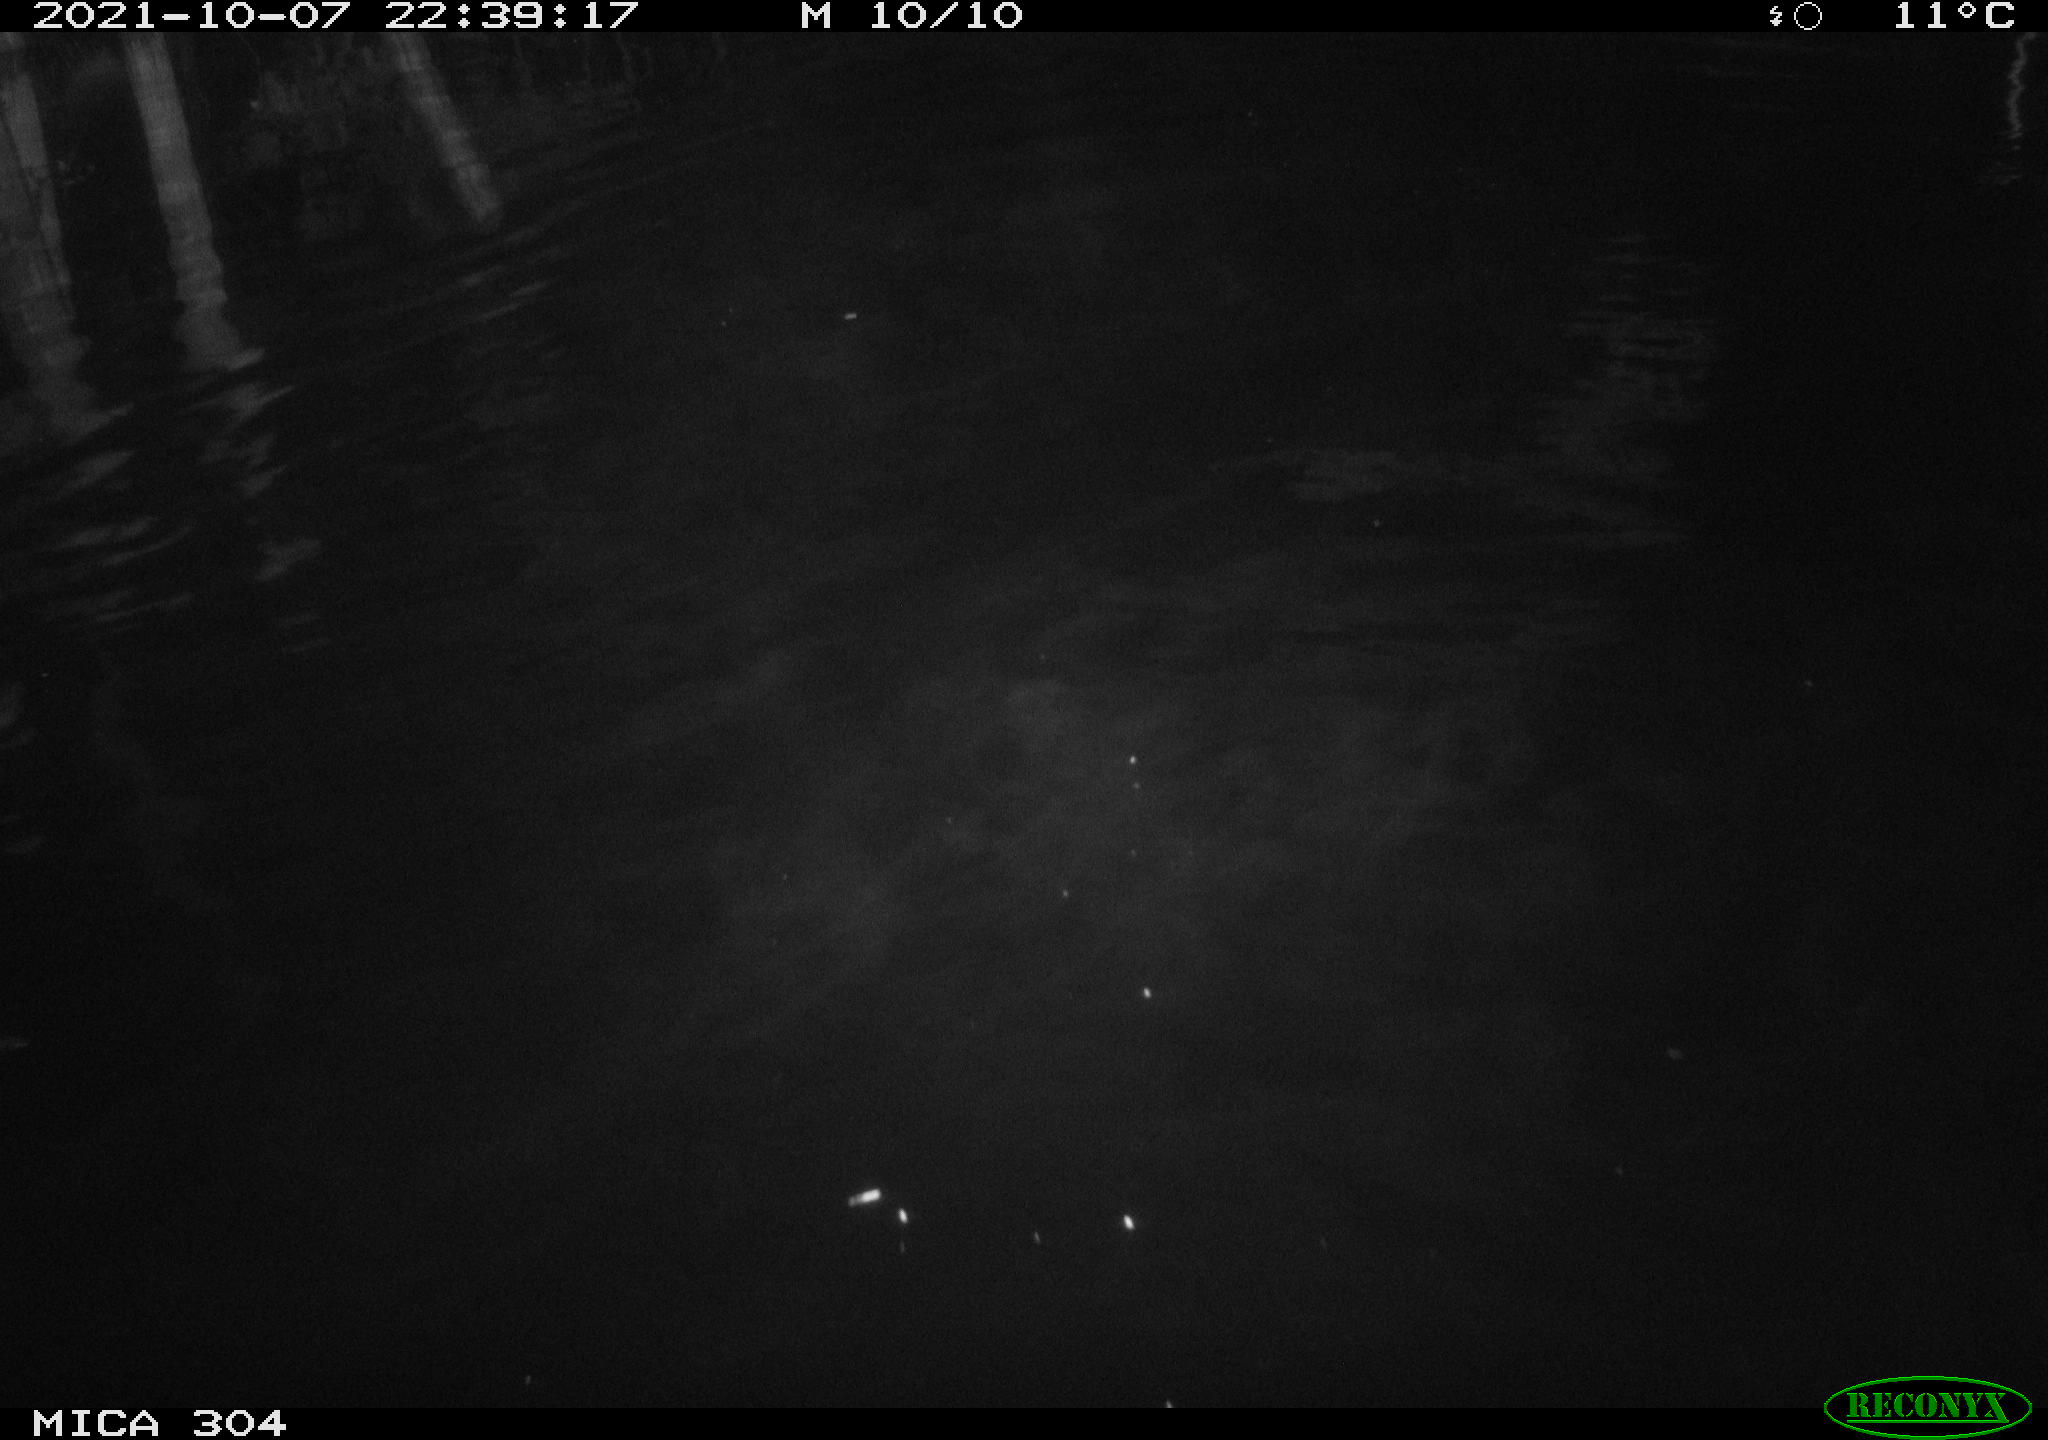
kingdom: Animalia
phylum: Chordata
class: Mammalia
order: Rodentia
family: Cricetidae
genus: Ondatra
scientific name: Ondatra zibethicus
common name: Muskrat
